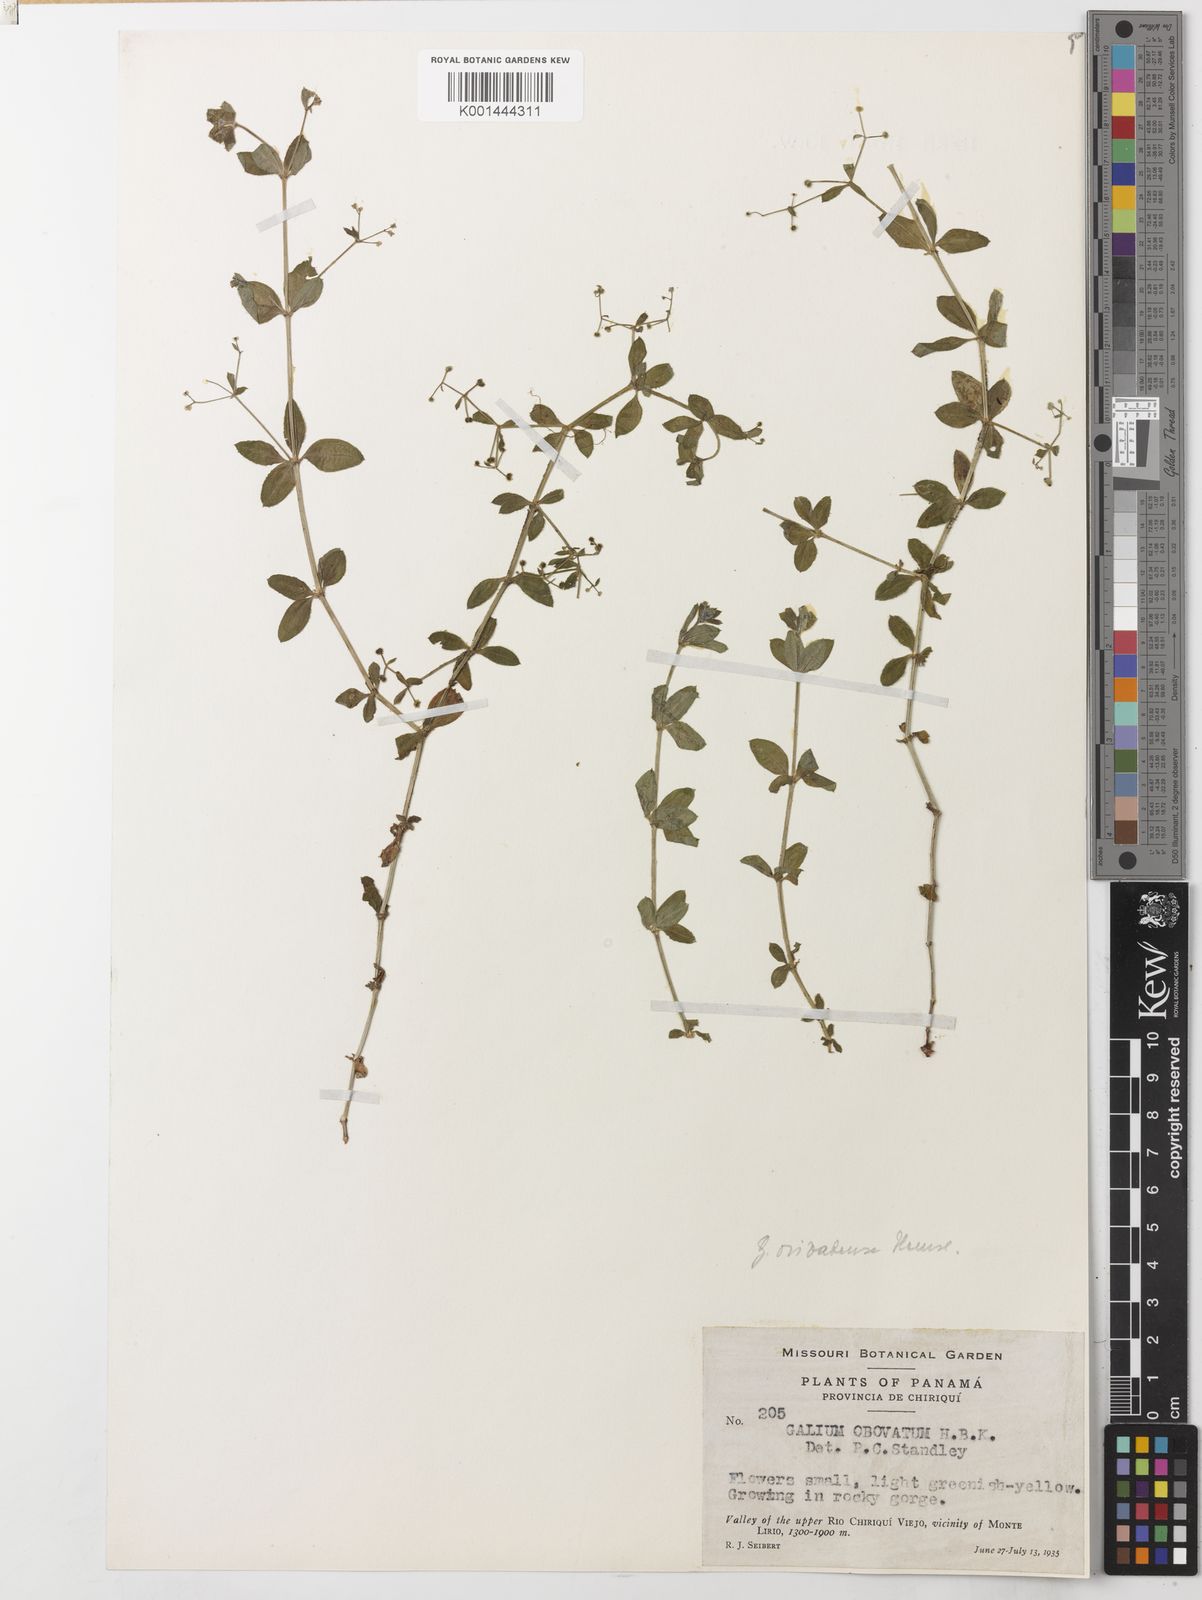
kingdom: Plantae
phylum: Tracheophyta
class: Magnoliopsida
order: Gentianales
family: Rubiaceae
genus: Galium
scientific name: Galium orizabense
